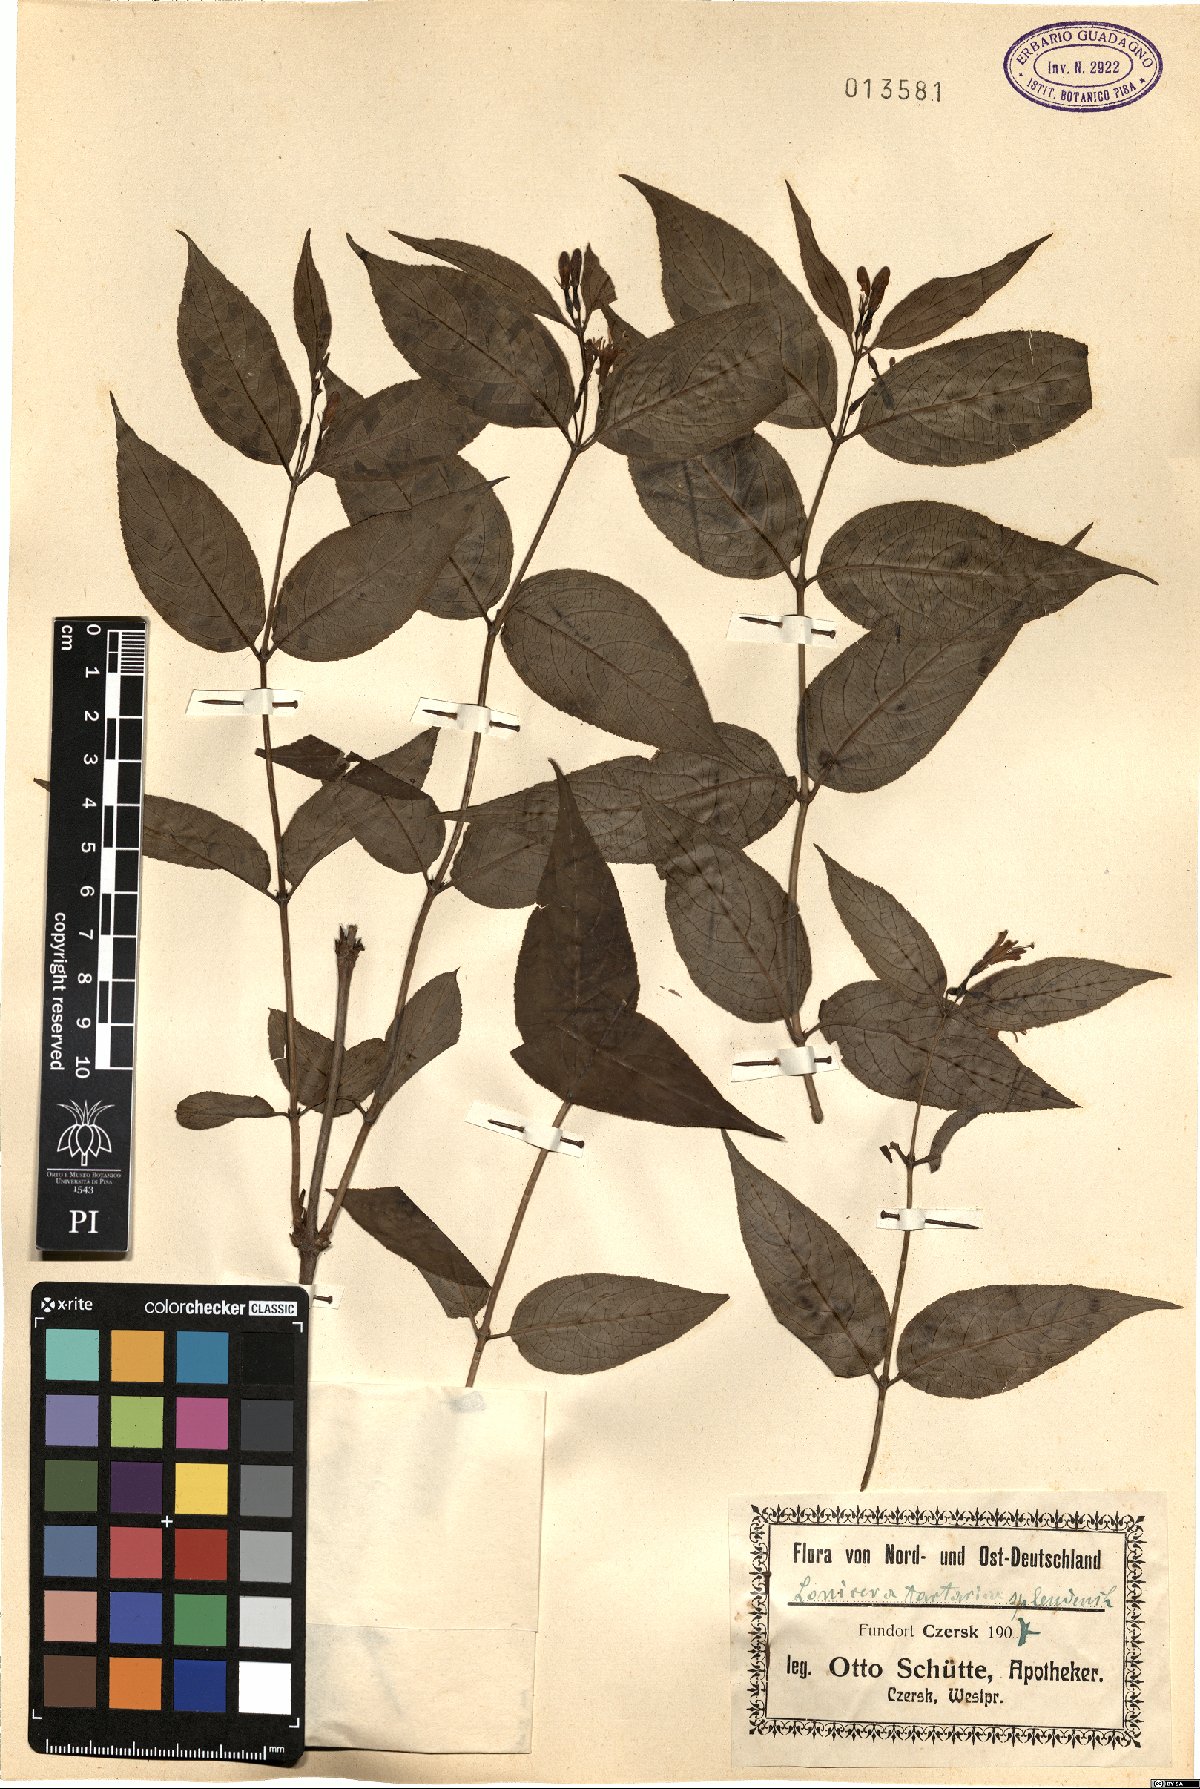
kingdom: Plantae
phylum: Tracheophyta
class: Magnoliopsida
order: Dipsacales
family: Caprifoliaceae
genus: Lonicera
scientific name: Lonicera tatarica
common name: Tatarian honeysuckle
